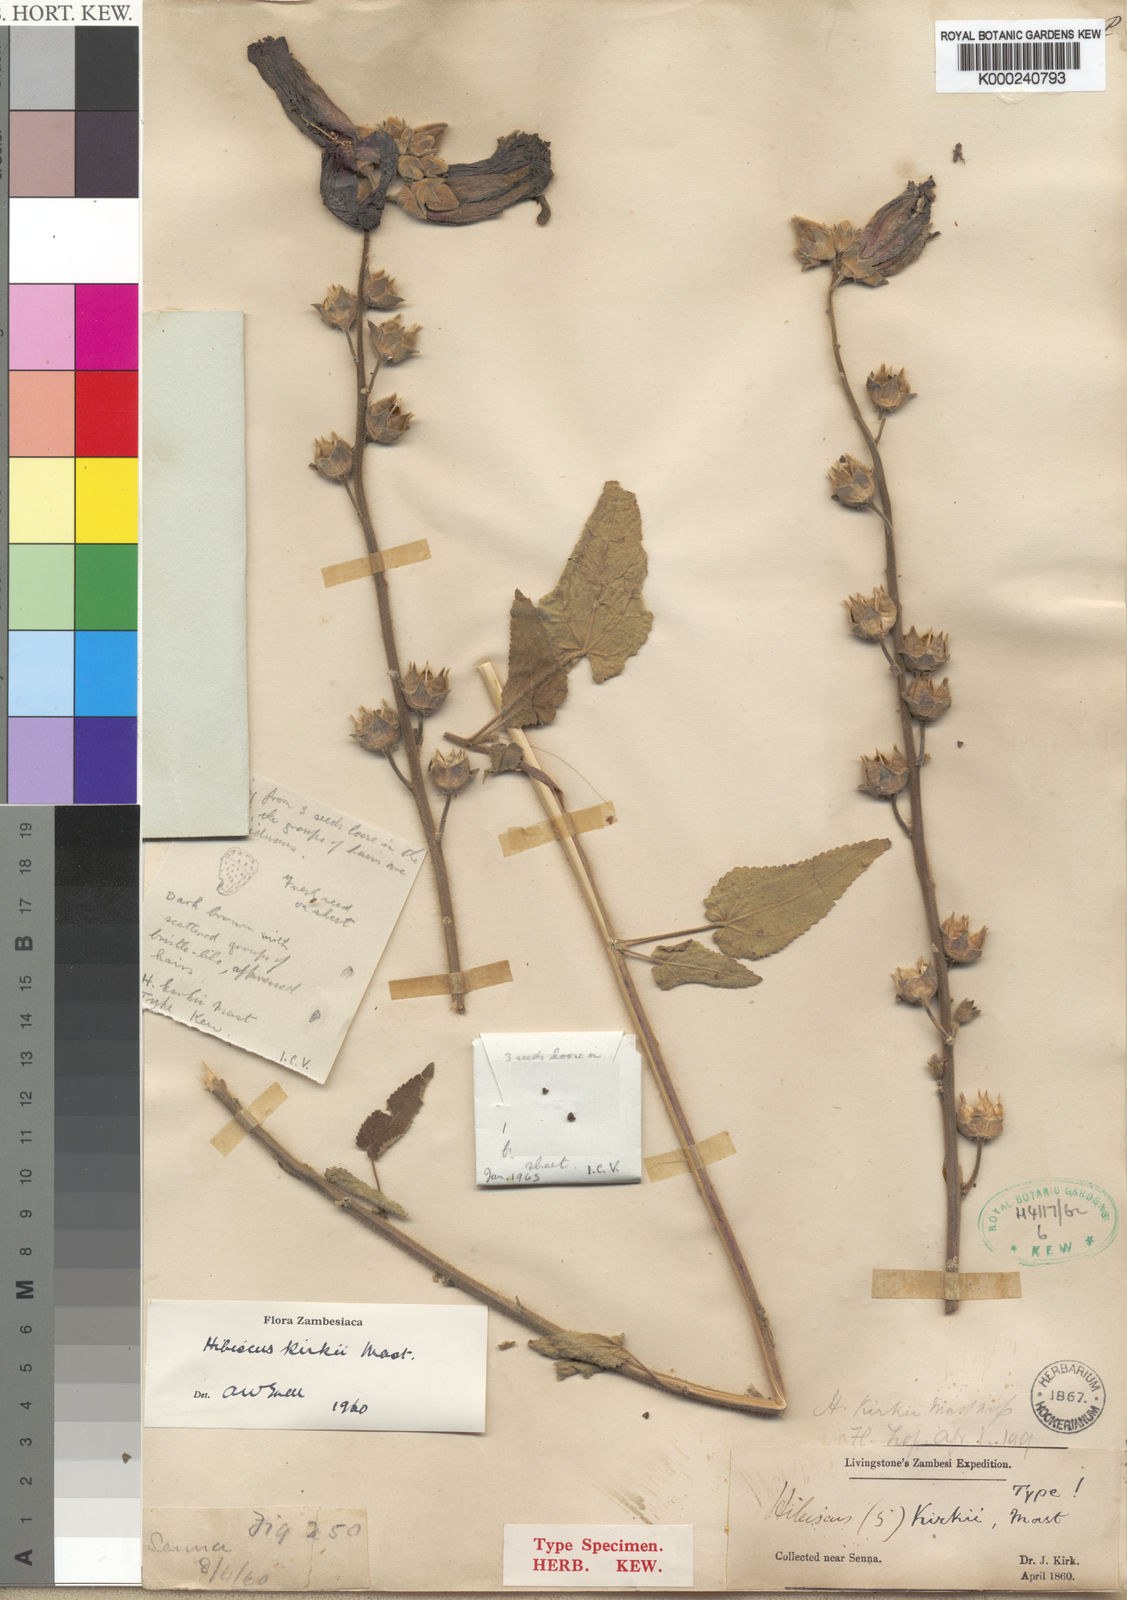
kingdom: Plantae
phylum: Tracheophyta
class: Magnoliopsida
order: Malvales
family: Malvaceae
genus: Hibiscus
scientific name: Hibiscus kirkii
